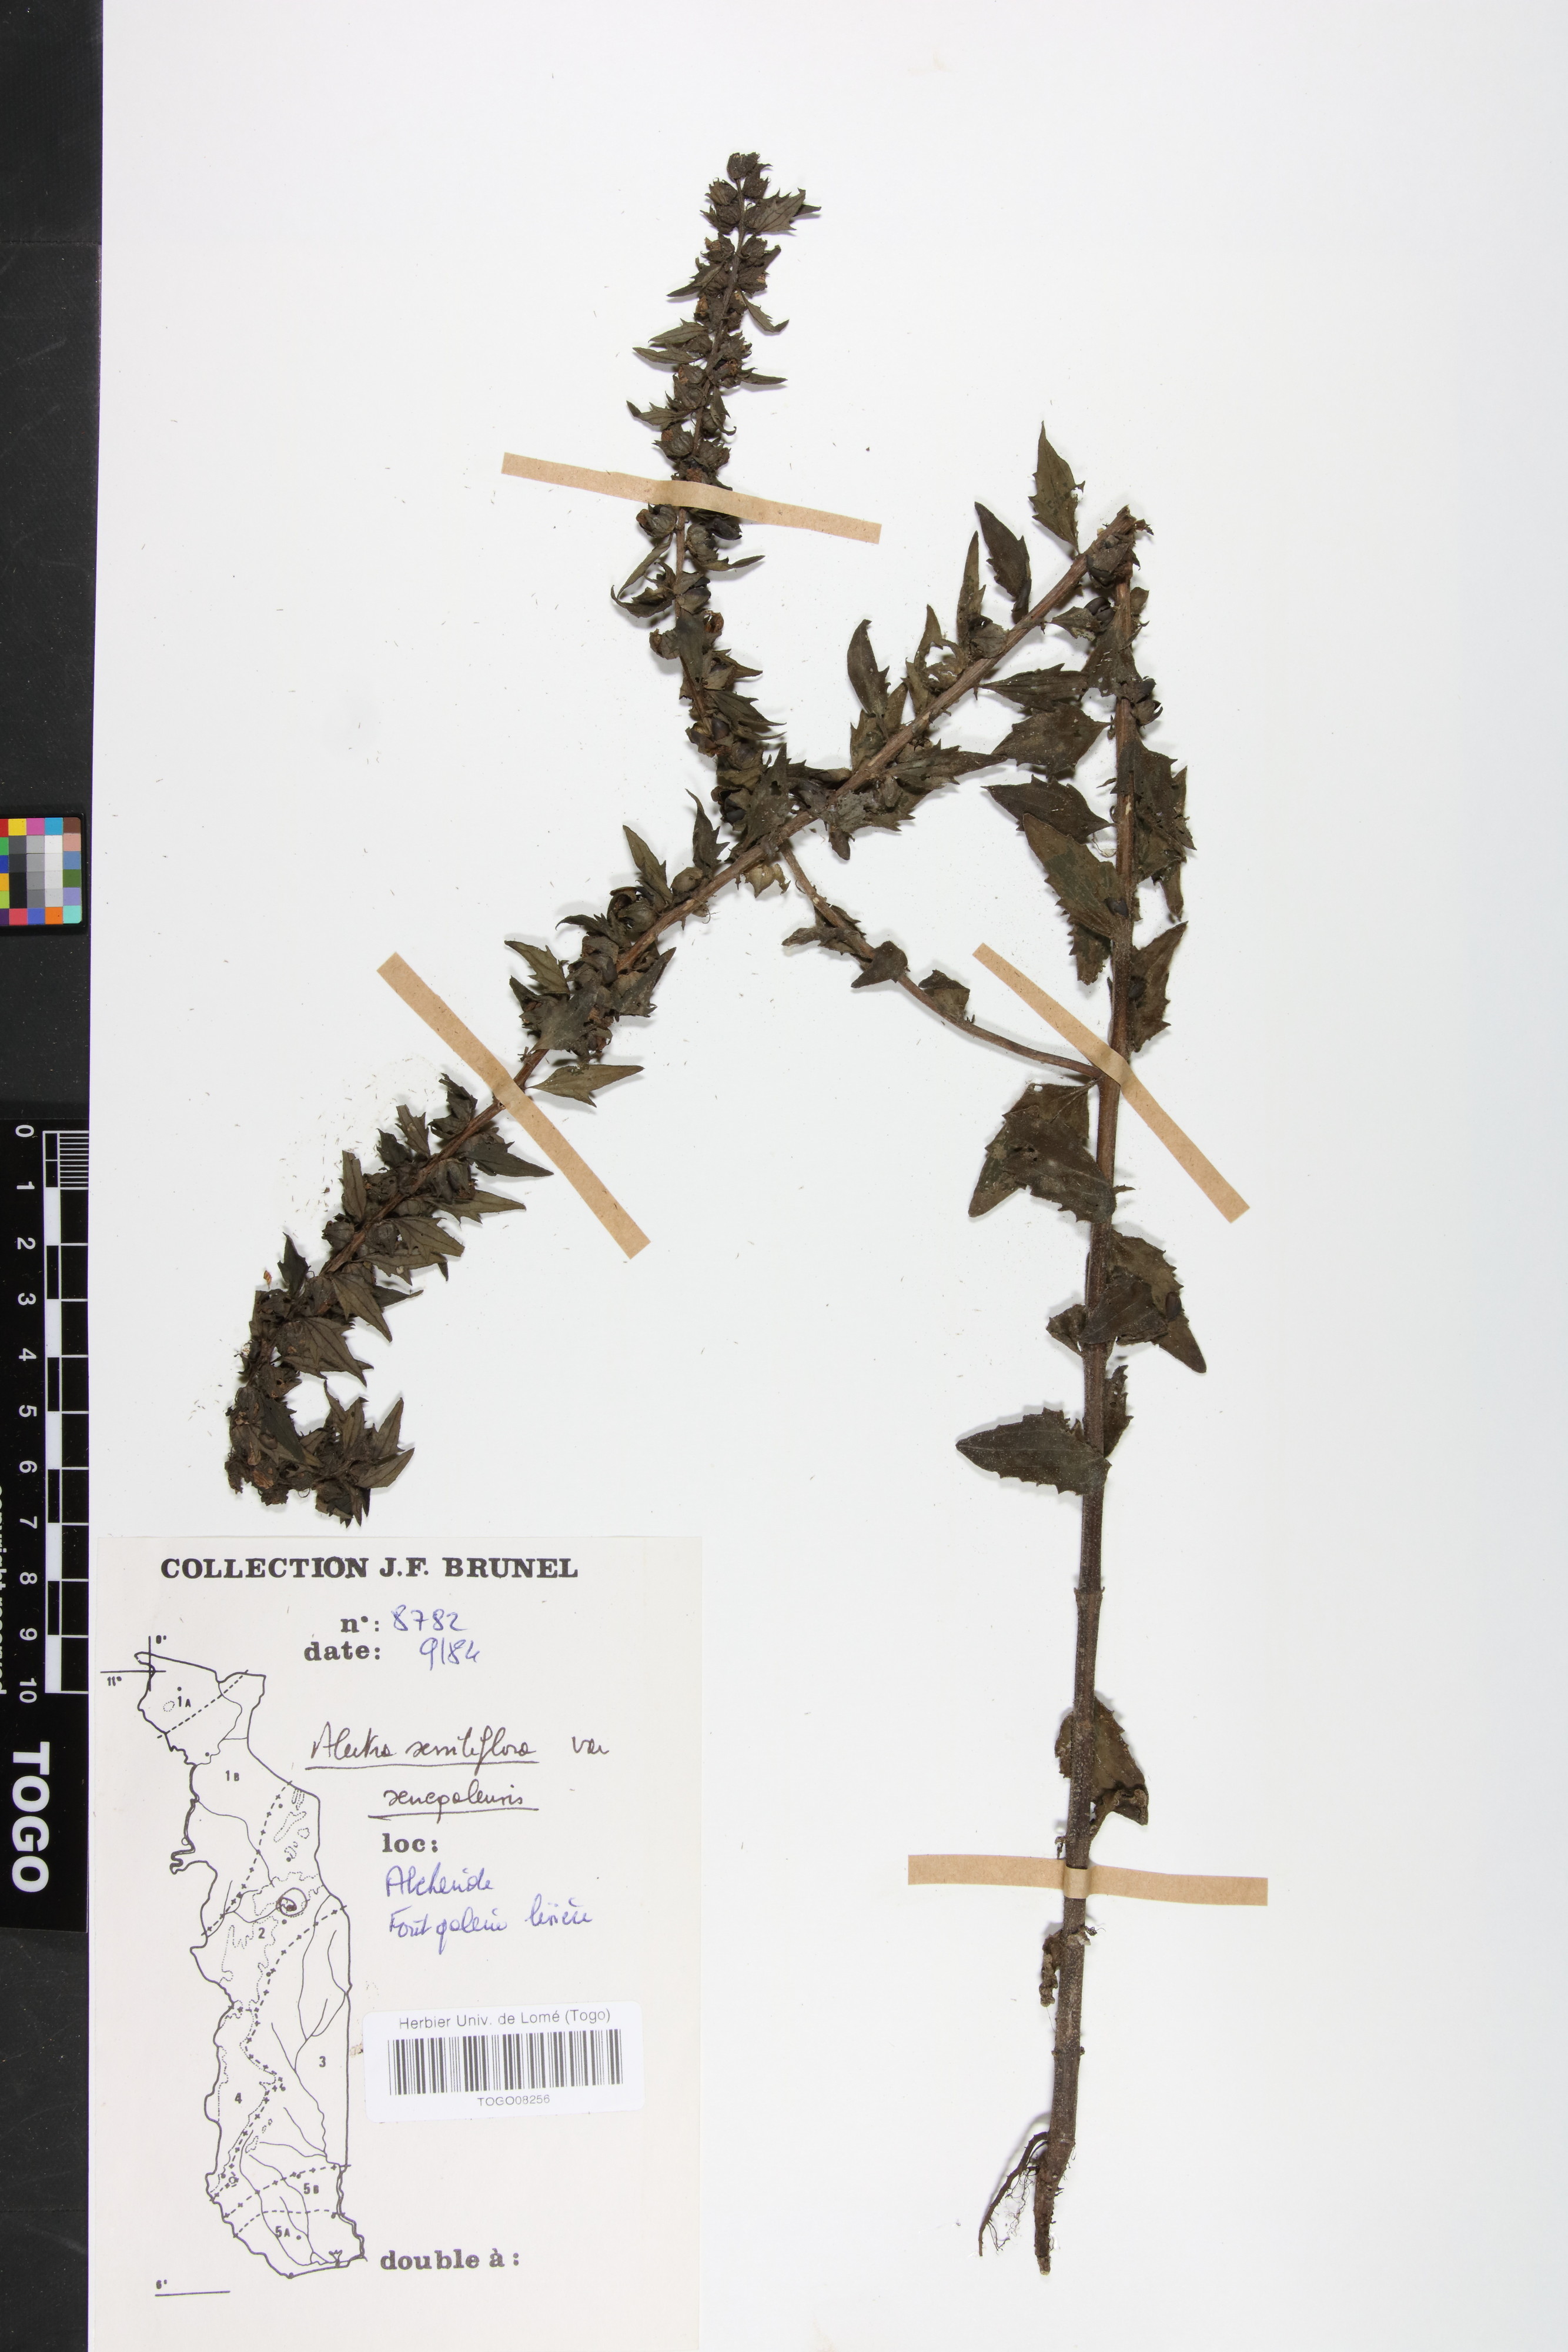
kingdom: Plantae
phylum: Tracheophyta
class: Magnoliopsida
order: Lamiales
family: Orobanchaceae
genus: Alectra
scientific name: Alectra sessiliflora
